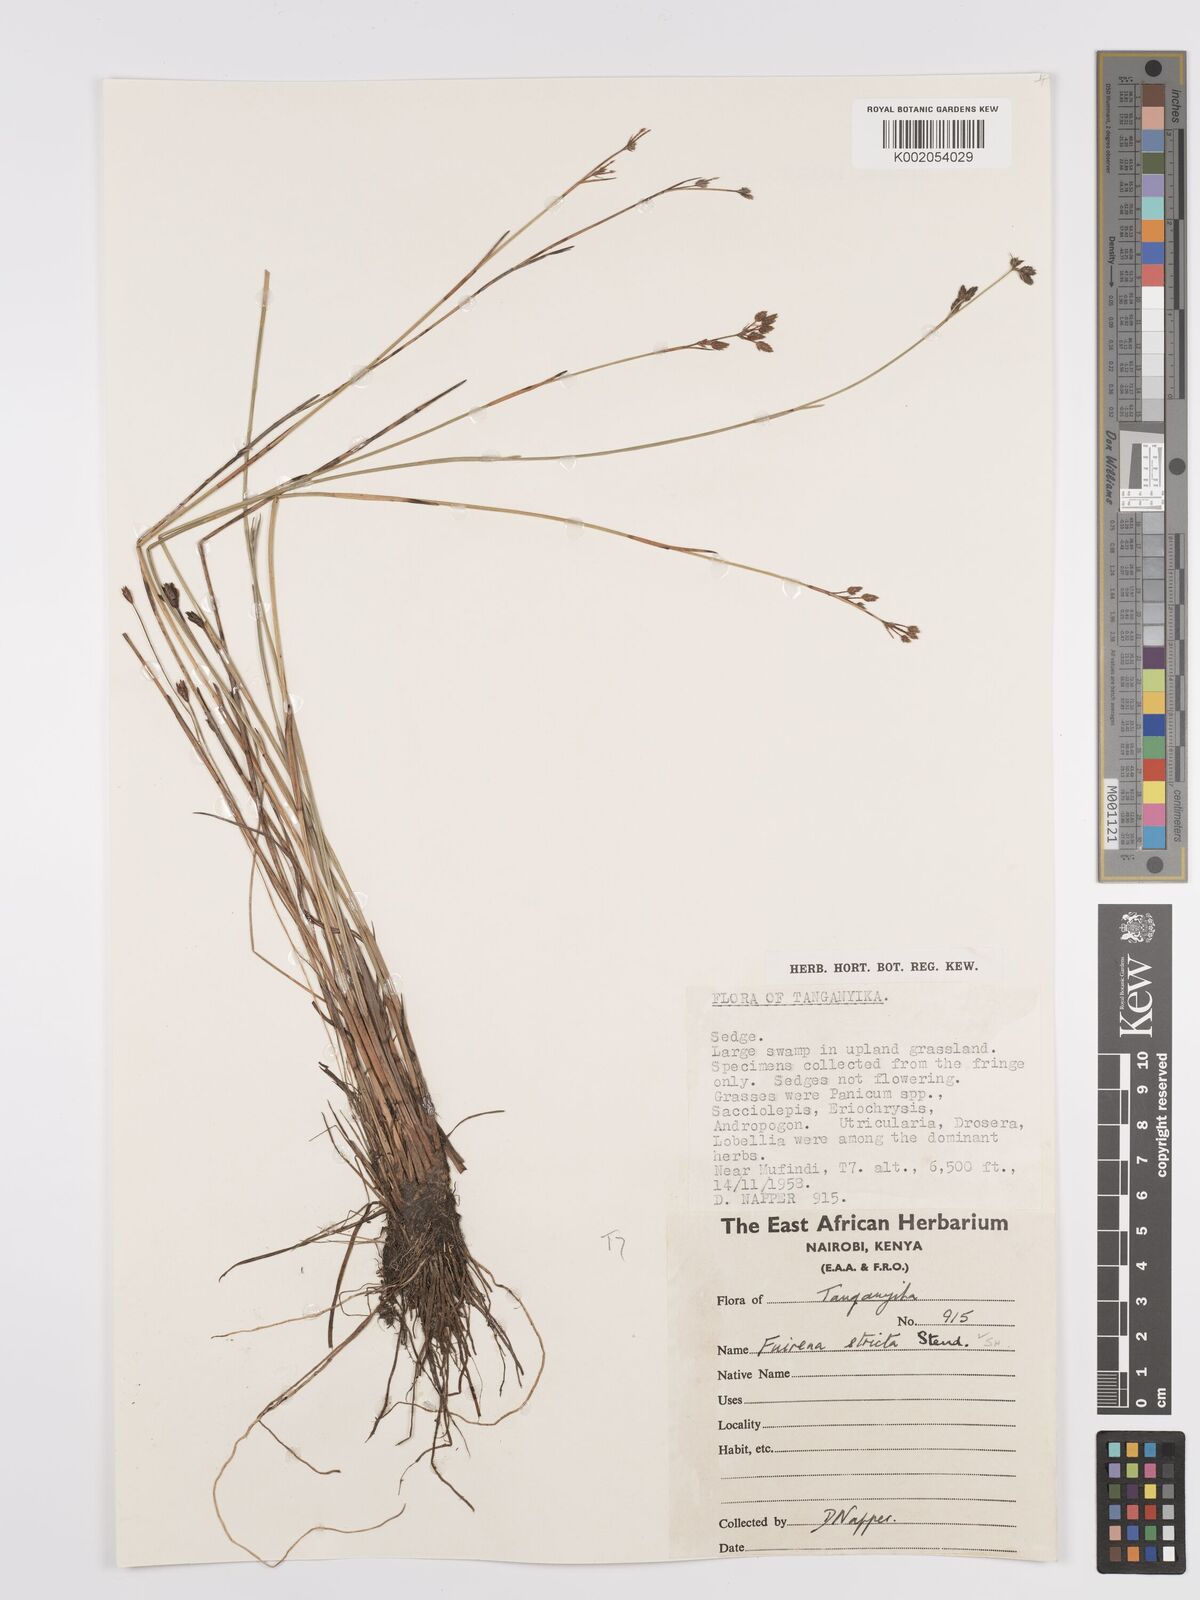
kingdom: Plantae
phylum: Tracheophyta
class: Liliopsida
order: Poales
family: Cyperaceae
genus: Fuirena
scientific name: Fuirena stricta
